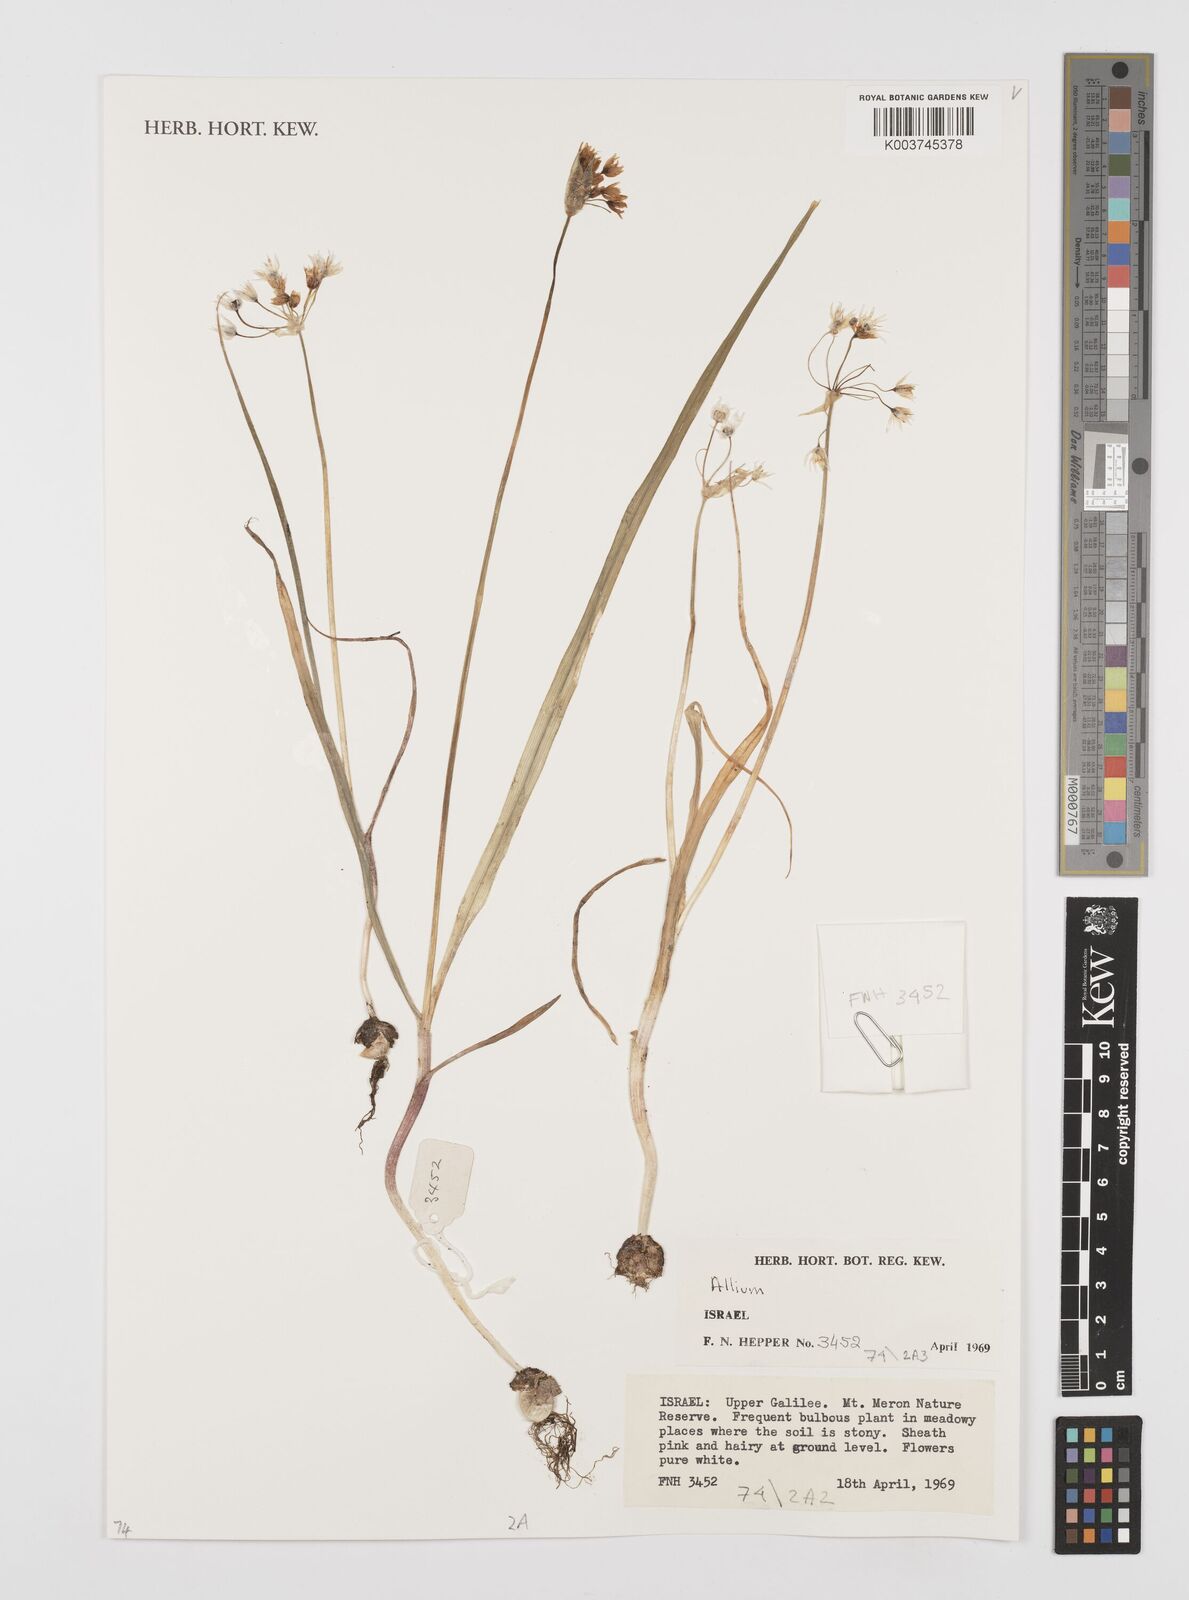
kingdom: Plantae
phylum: Tracheophyta
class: Liliopsida
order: Asparagales
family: Amaryllidaceae
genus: Allium
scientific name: Allium
